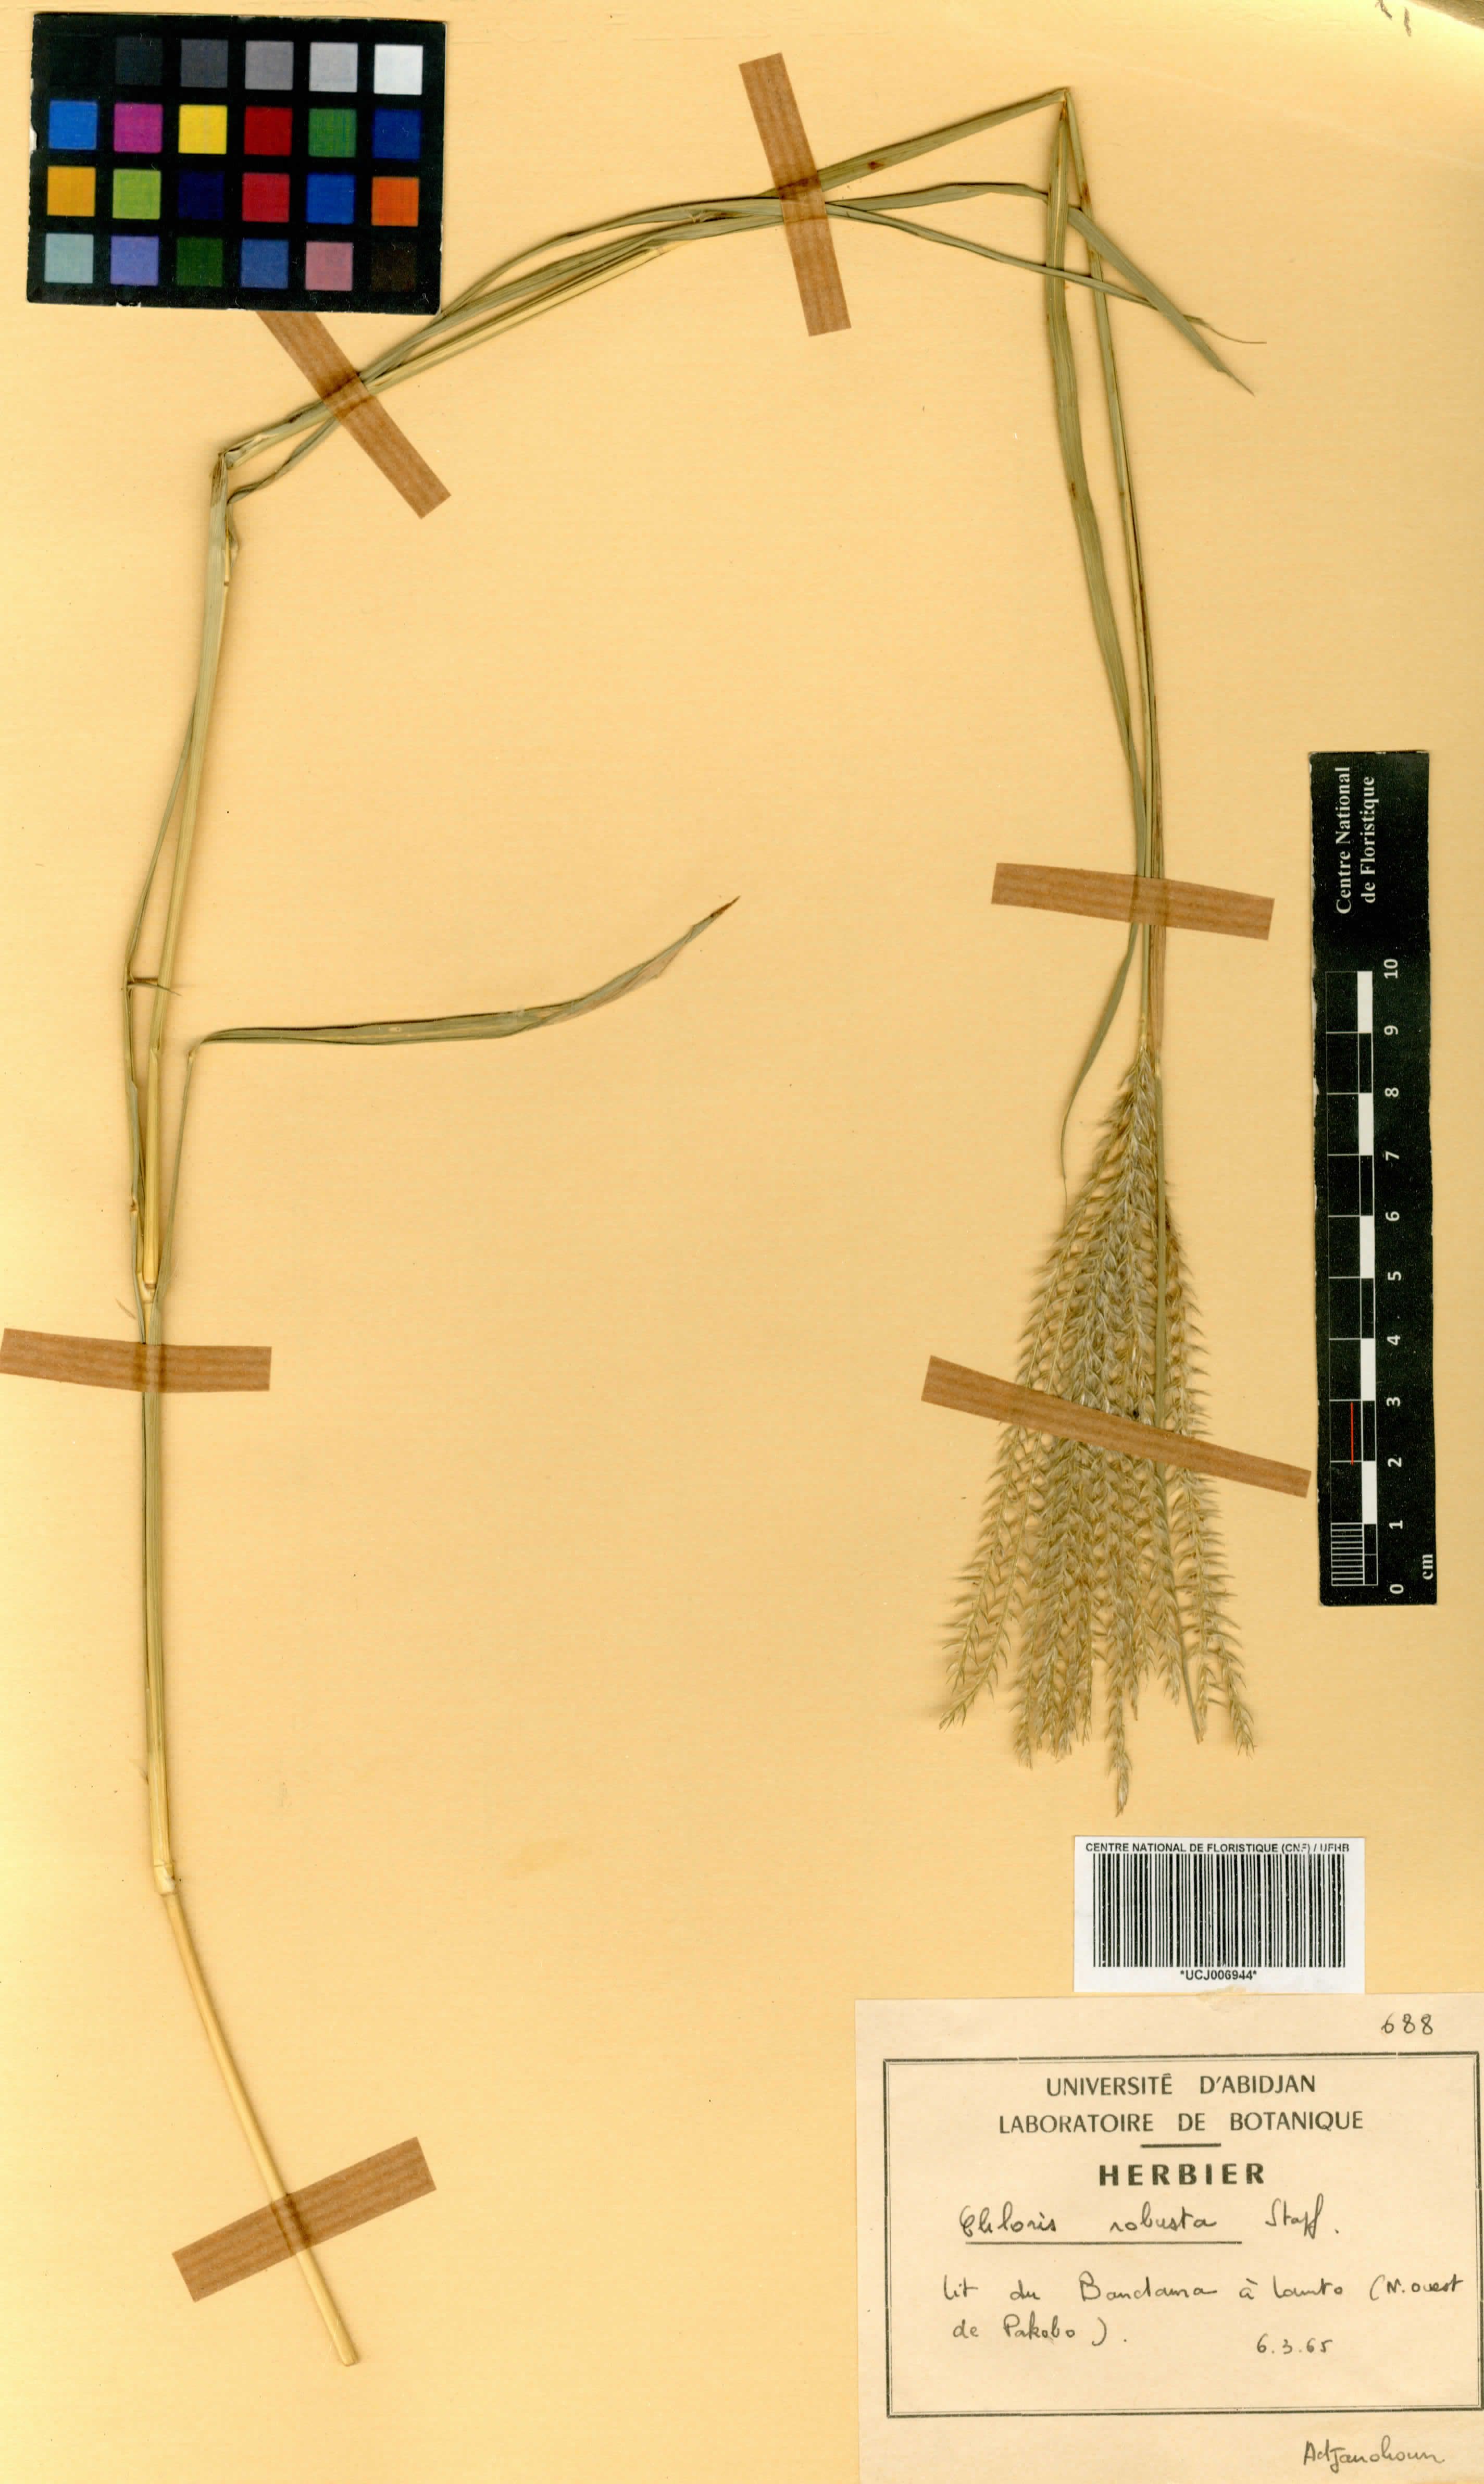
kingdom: Plantae
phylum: Tracheophyta
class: Liliopsida
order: Poales
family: Poaceae
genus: Chloris
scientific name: Chloris robusta
